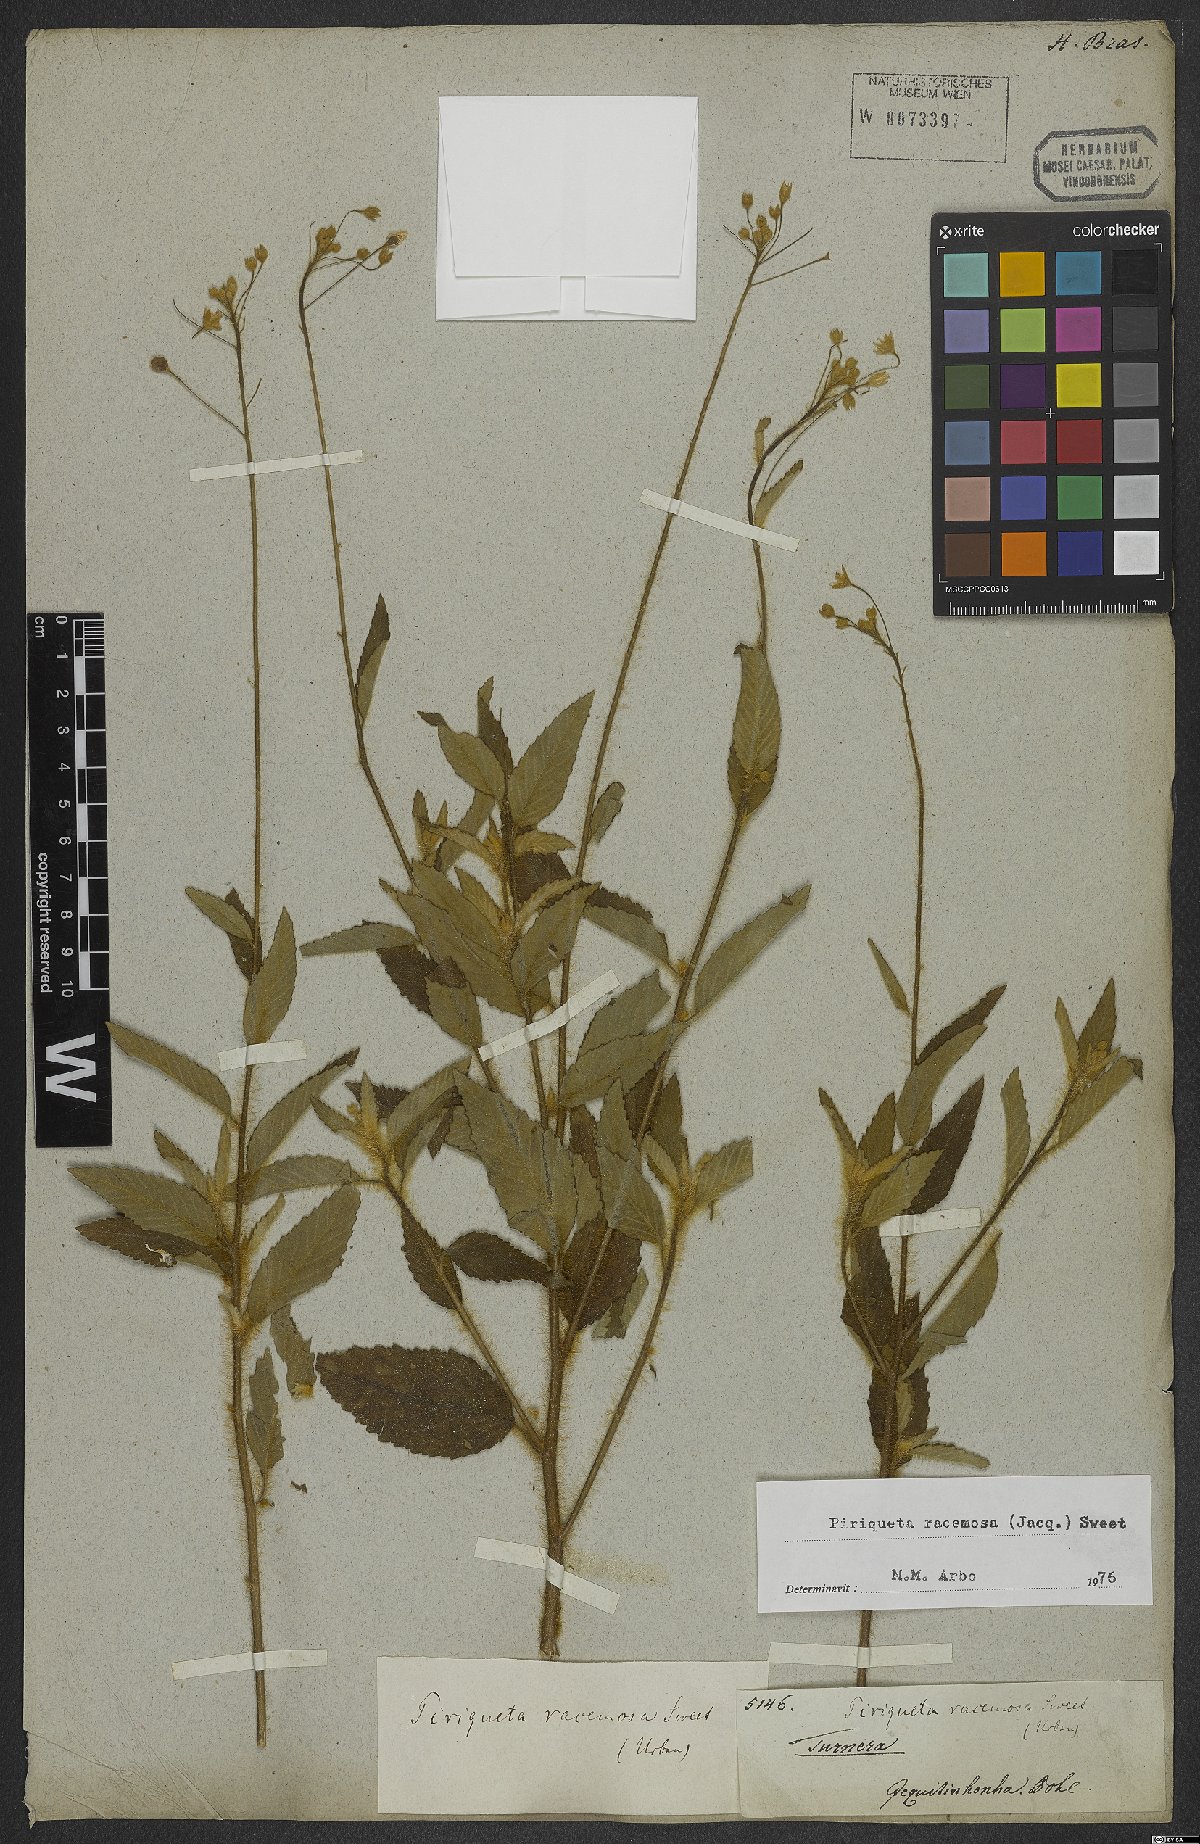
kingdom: Plantae
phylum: Tracheophyta
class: Magnoliopsida
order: Malpighiales
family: Turneraceae
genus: Piriqueta
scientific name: Piriqueta racemosa
